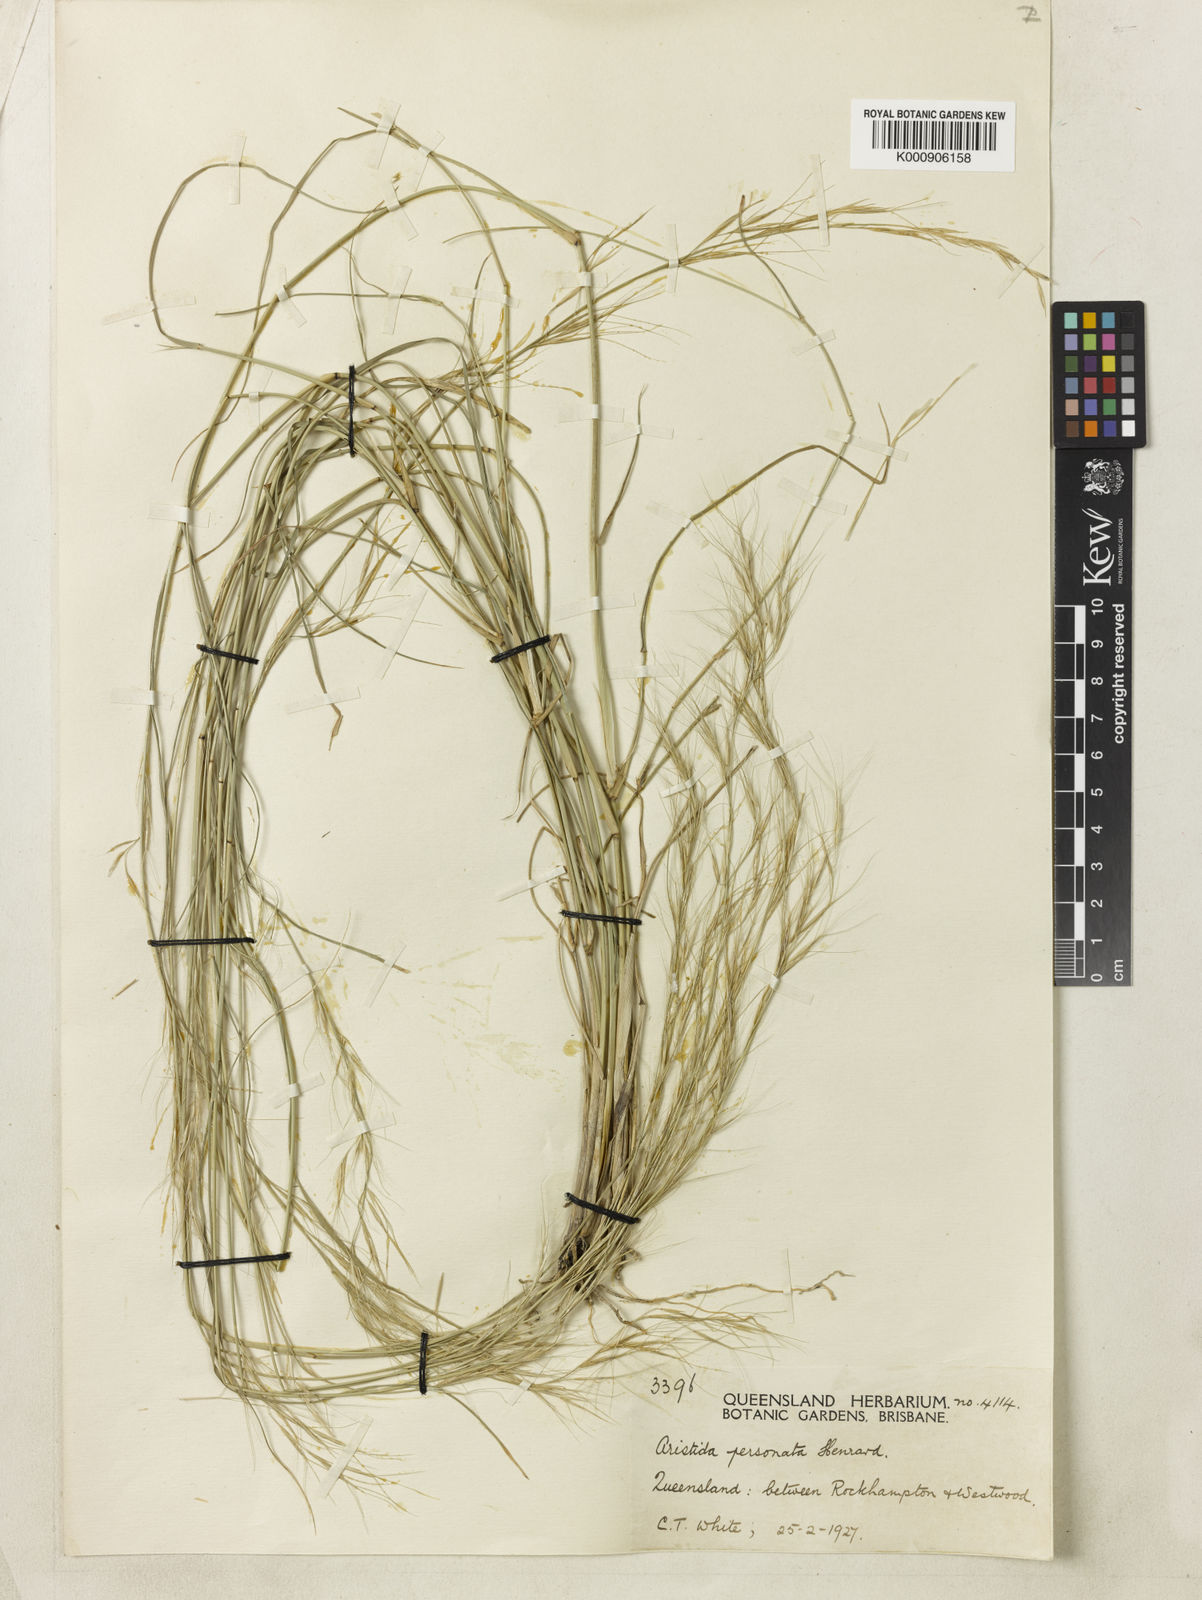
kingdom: Plantae
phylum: Tracheophyta
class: Liliopsida
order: Poales
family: Poaceae
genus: Aristida
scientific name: Aristida personata
